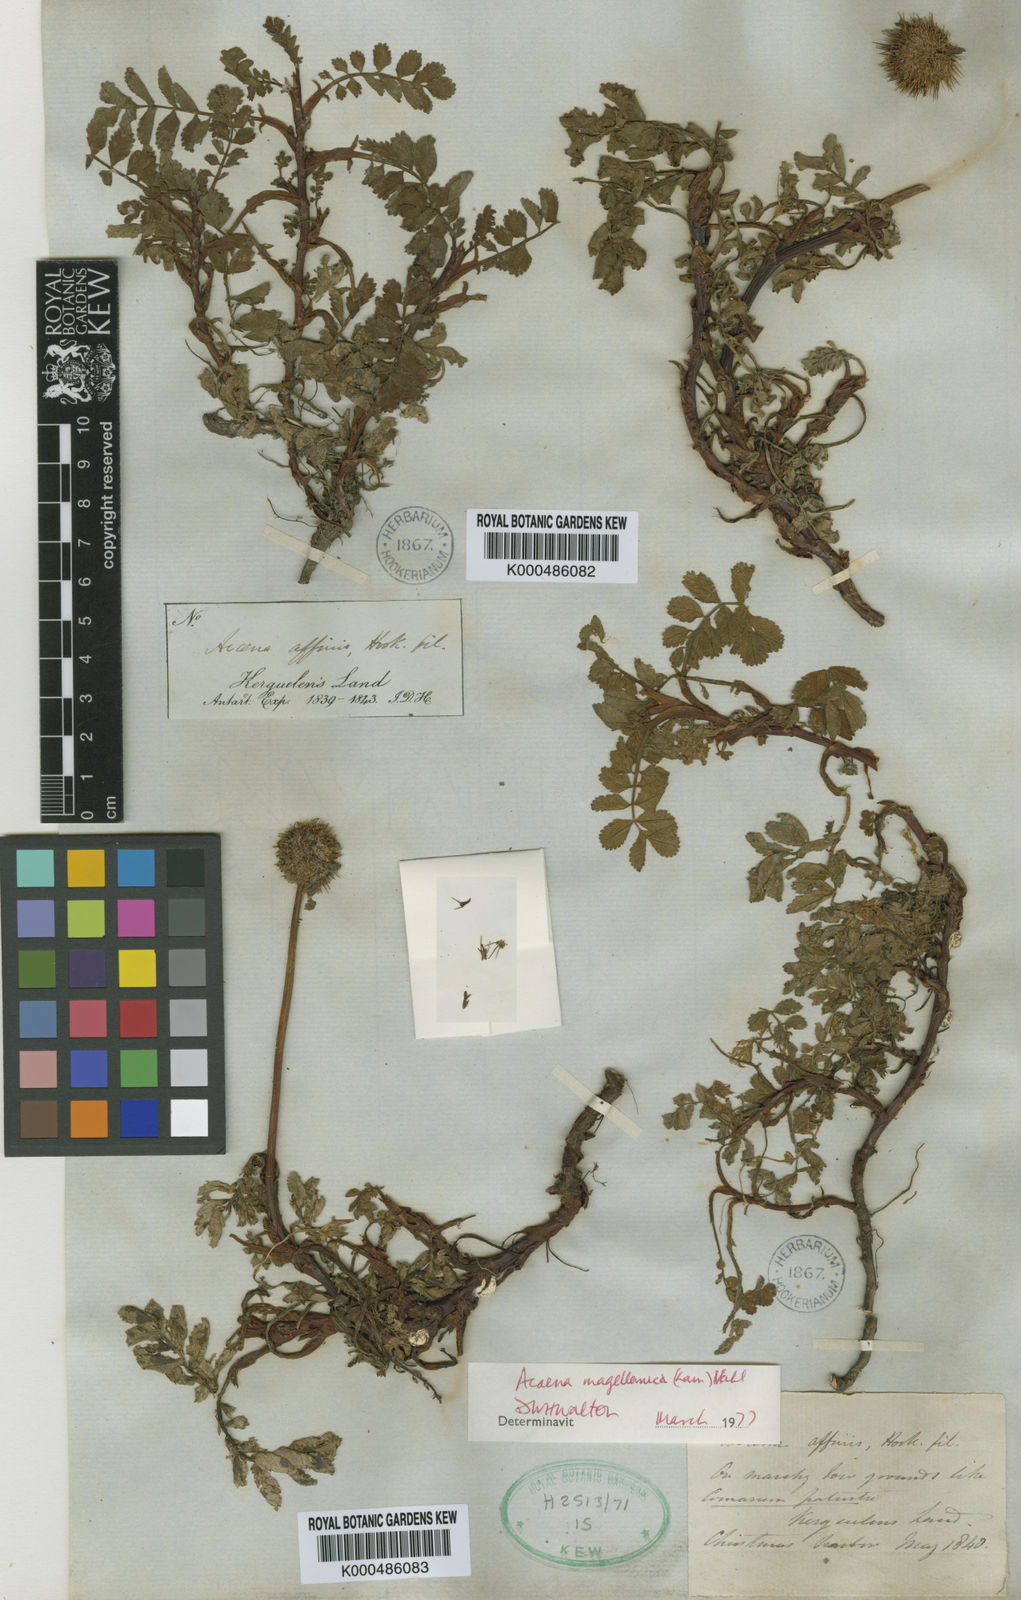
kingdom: Plantae
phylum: Tracheophyta
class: Magnoliopsida
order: Rosales
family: Rosaceae
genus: Acaena
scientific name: Acaena magellanica
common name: New zealand burr
